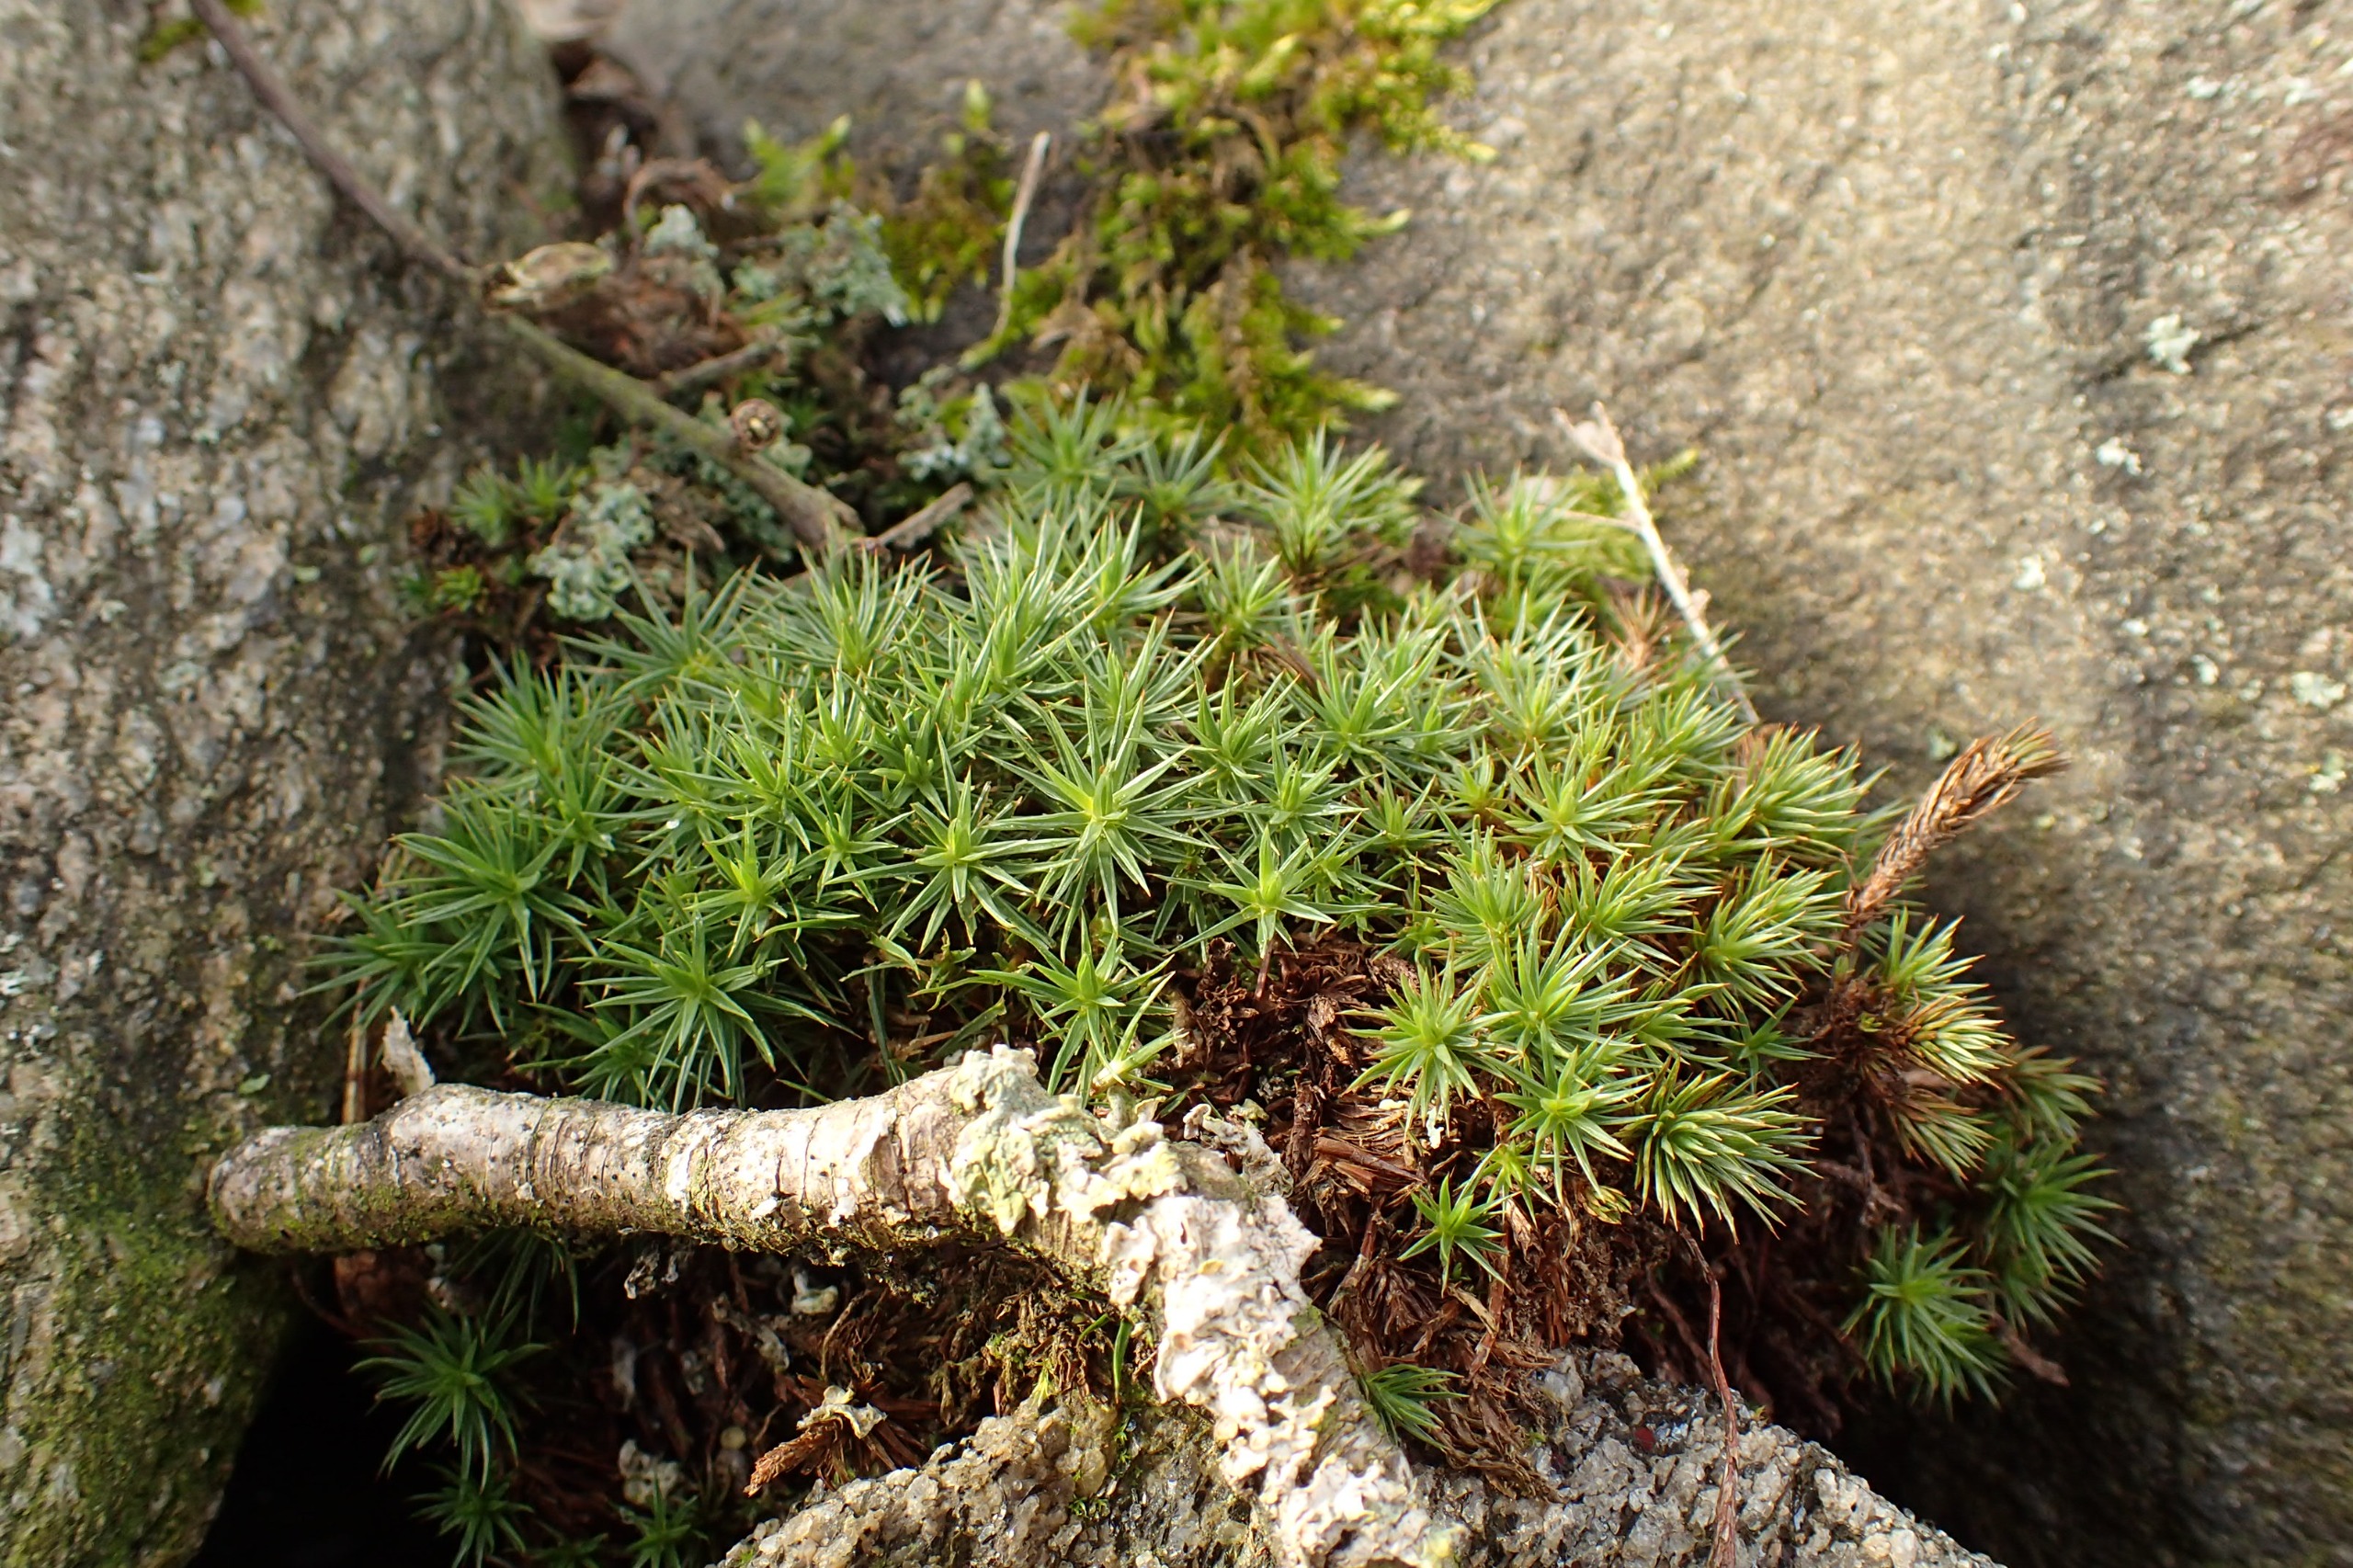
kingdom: Plantae
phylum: Bryophyta
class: Polytrichopsida
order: Polytrichales
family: Polytrichaceae
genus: Polytrichum
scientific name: Polytrichum juniperinum
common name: Ene-jomfruhår
